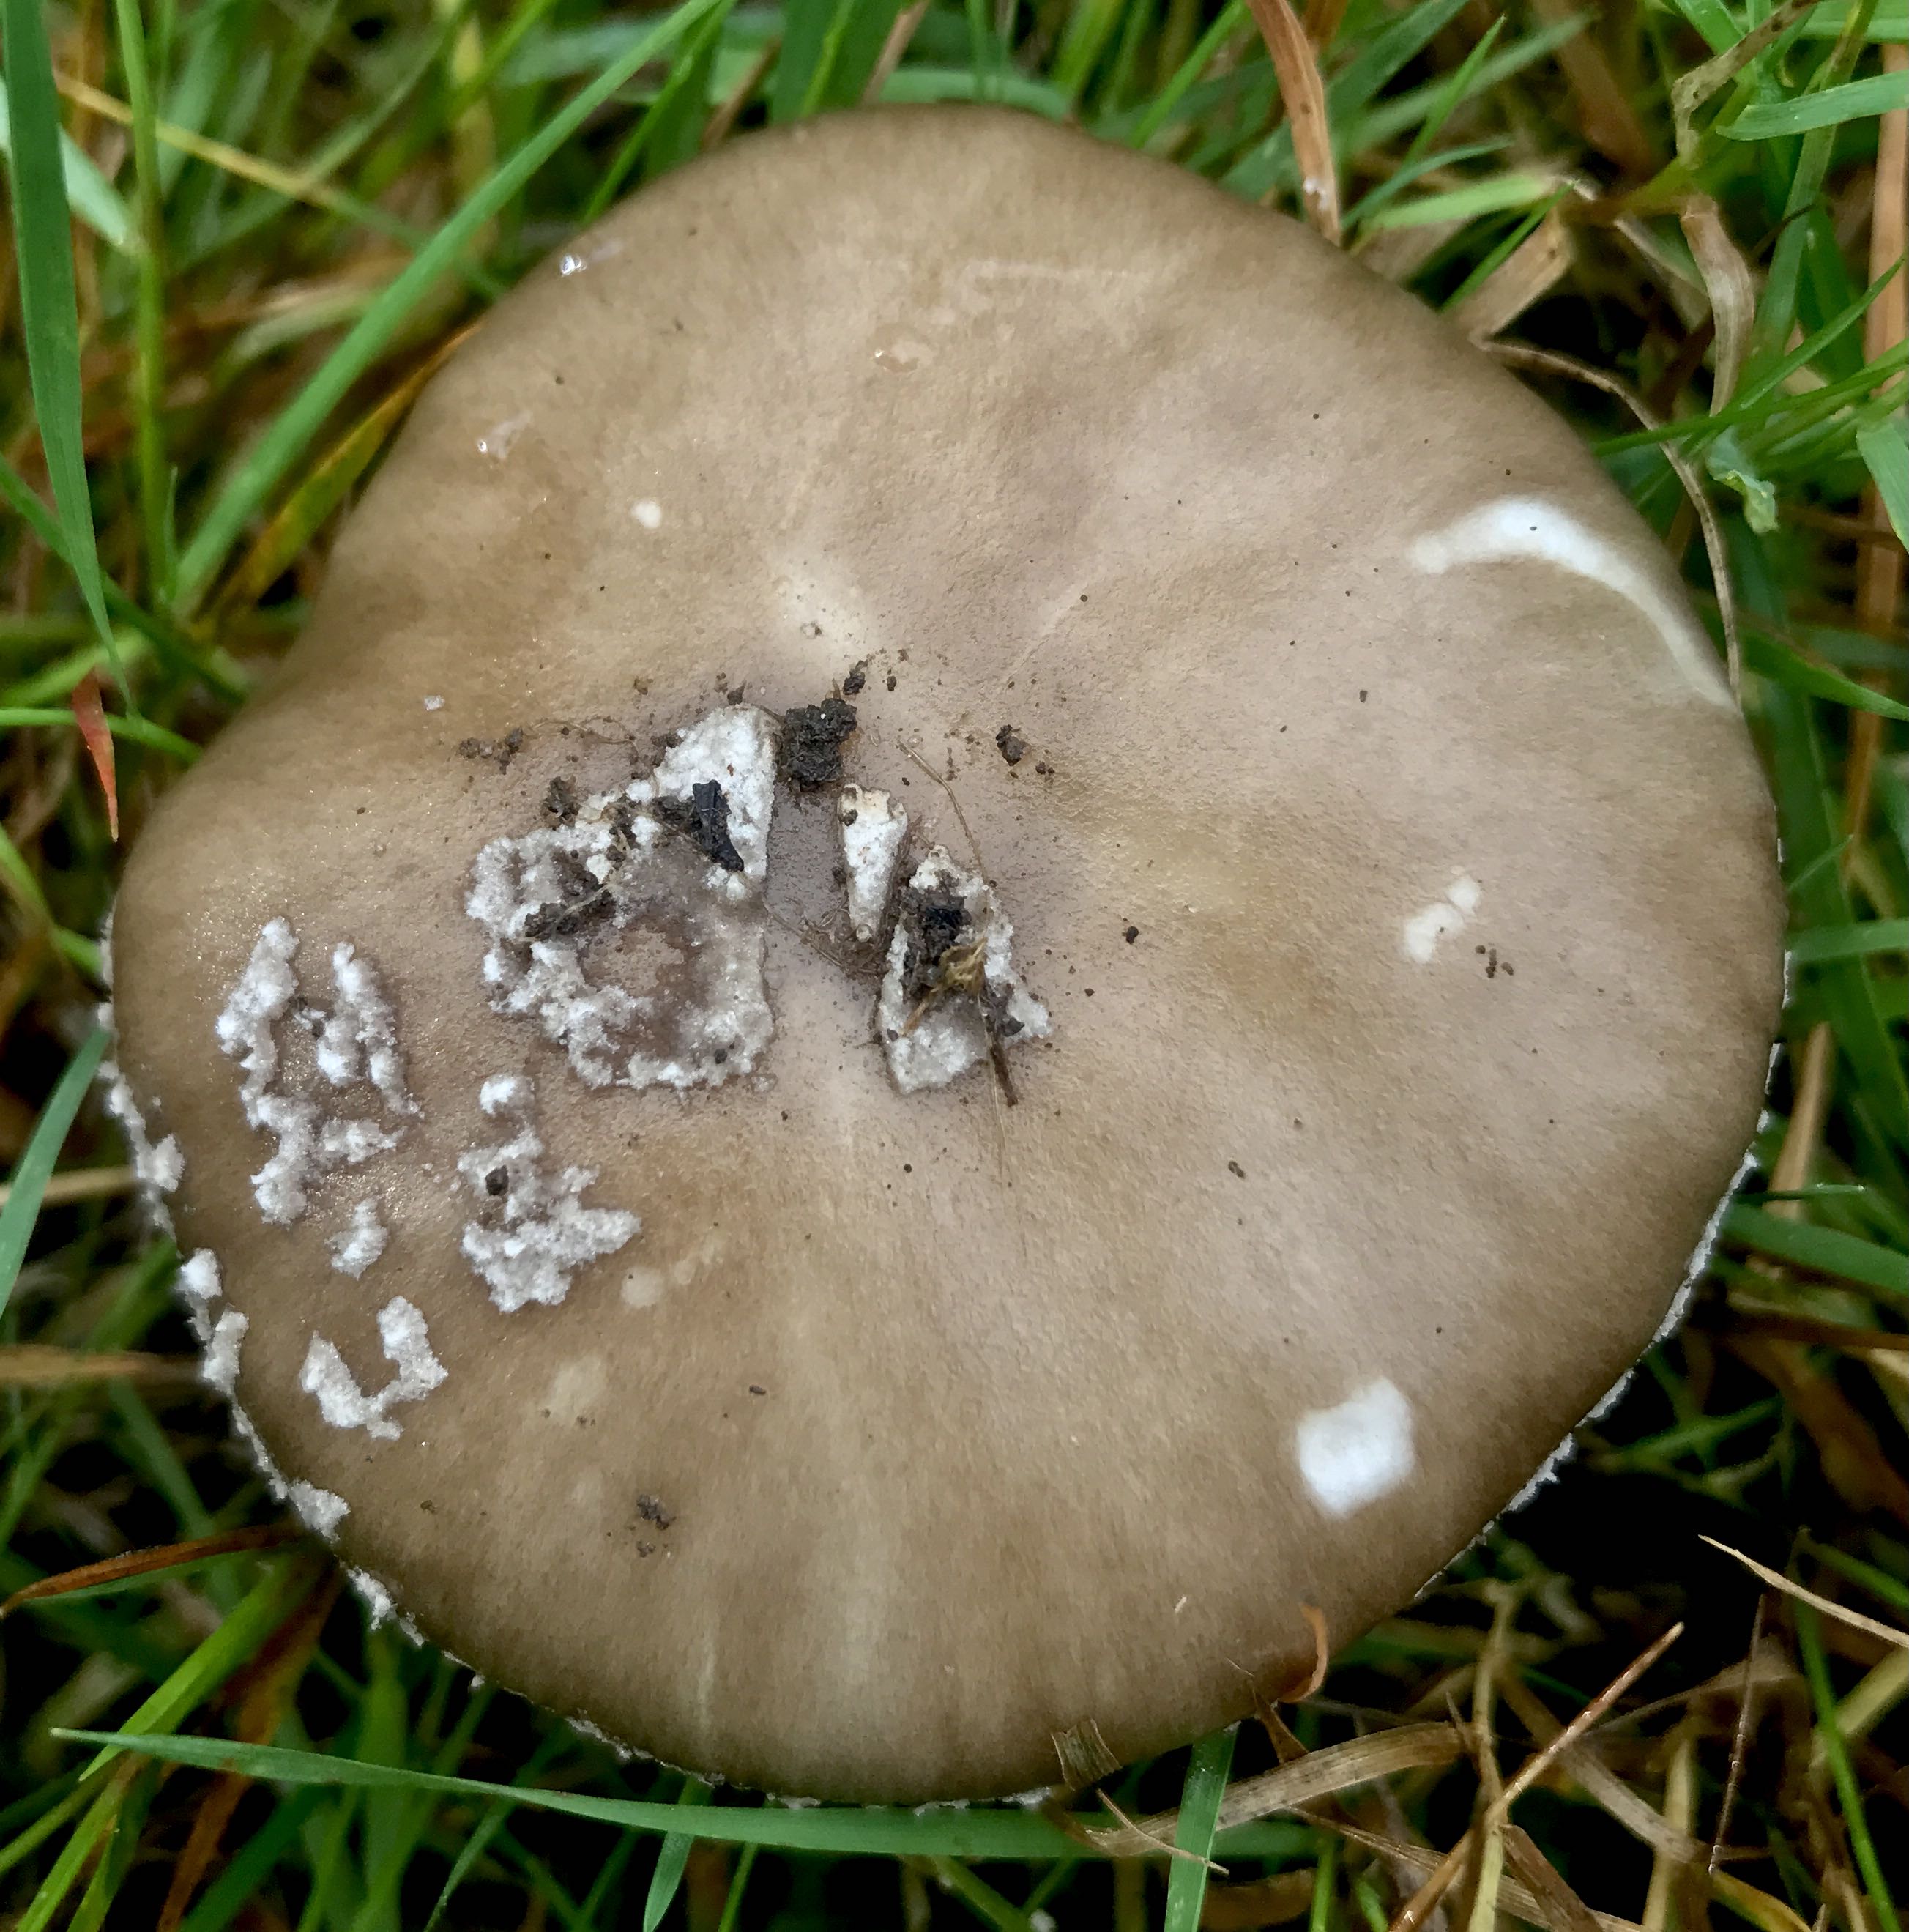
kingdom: Fungi
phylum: Basidiomycota
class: Agaricomycetes
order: Agaricales
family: Amanitaceae
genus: Amanita
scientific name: Amanita
